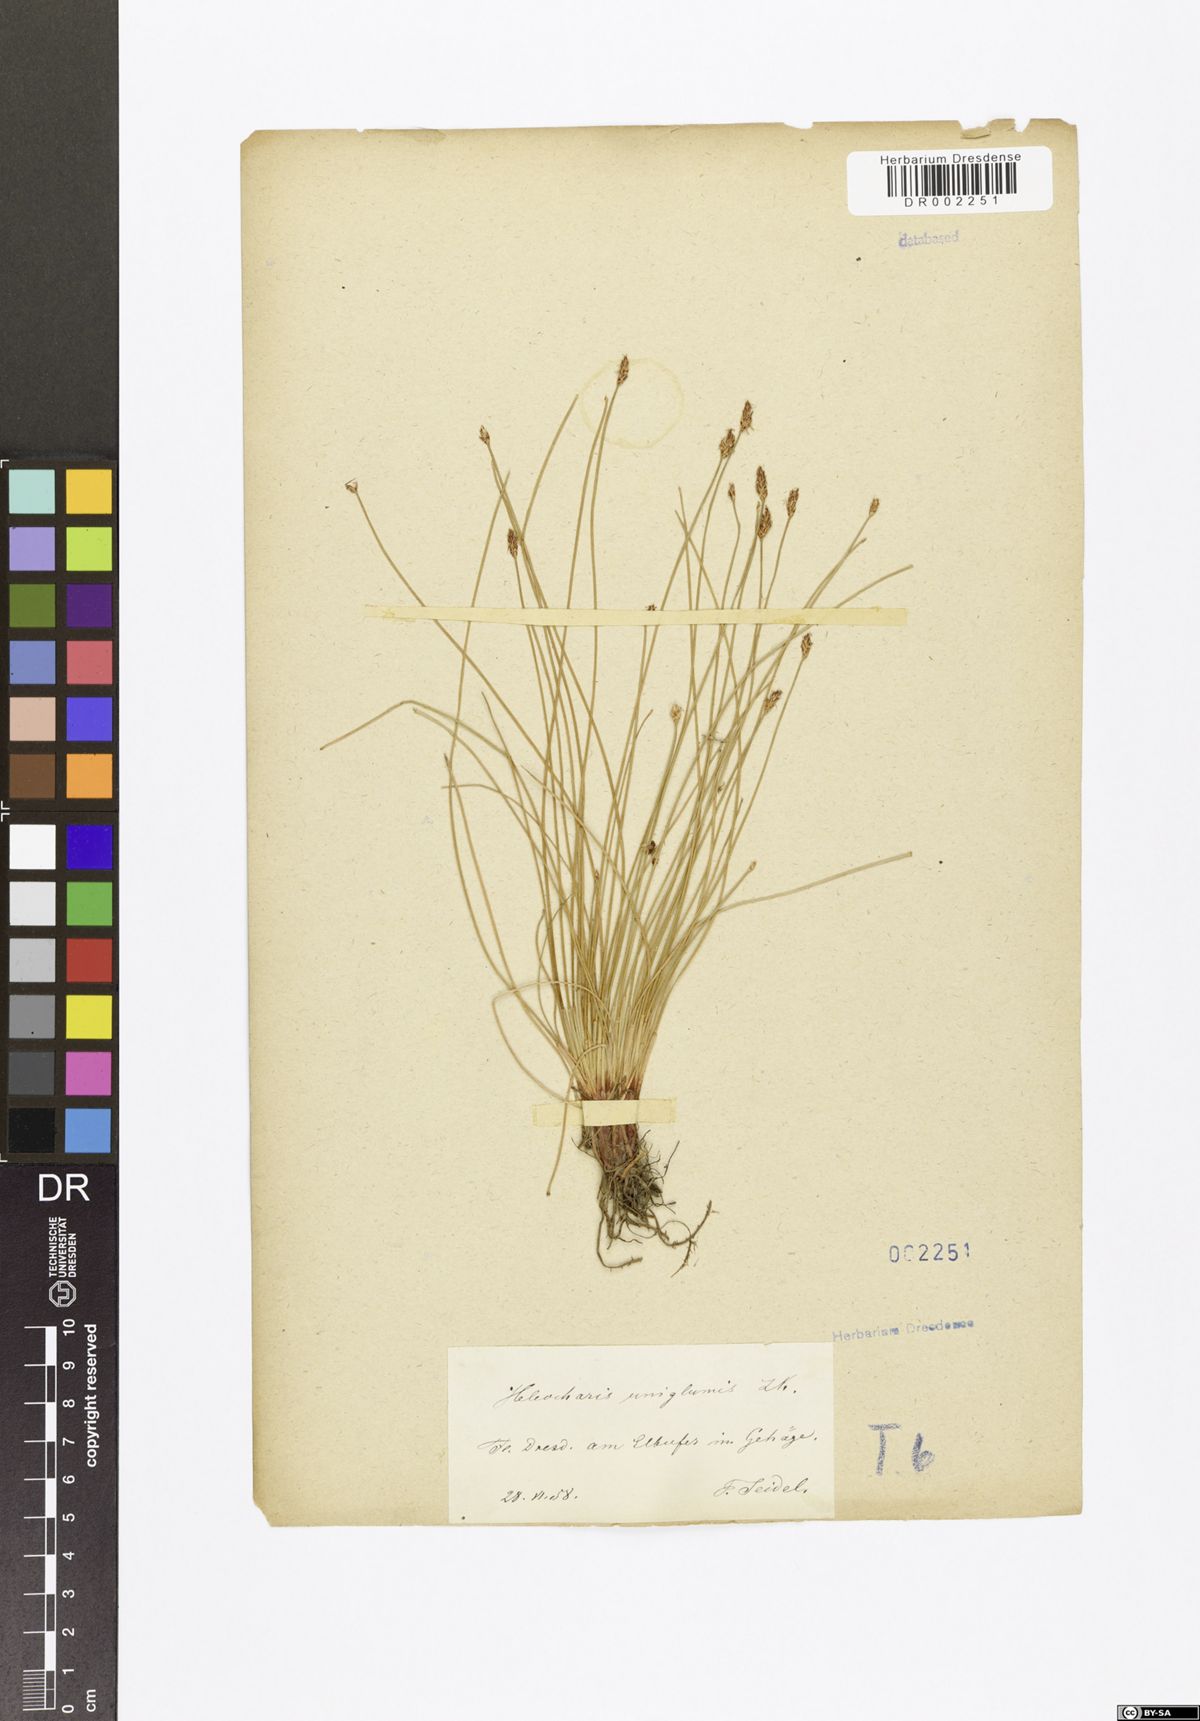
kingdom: Plantae
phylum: Tracheophyta
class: Liliopsida
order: Poales
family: Cyperaceae
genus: Eleocharis
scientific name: Eleocharis uniglumis
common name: Slender spike-rush
